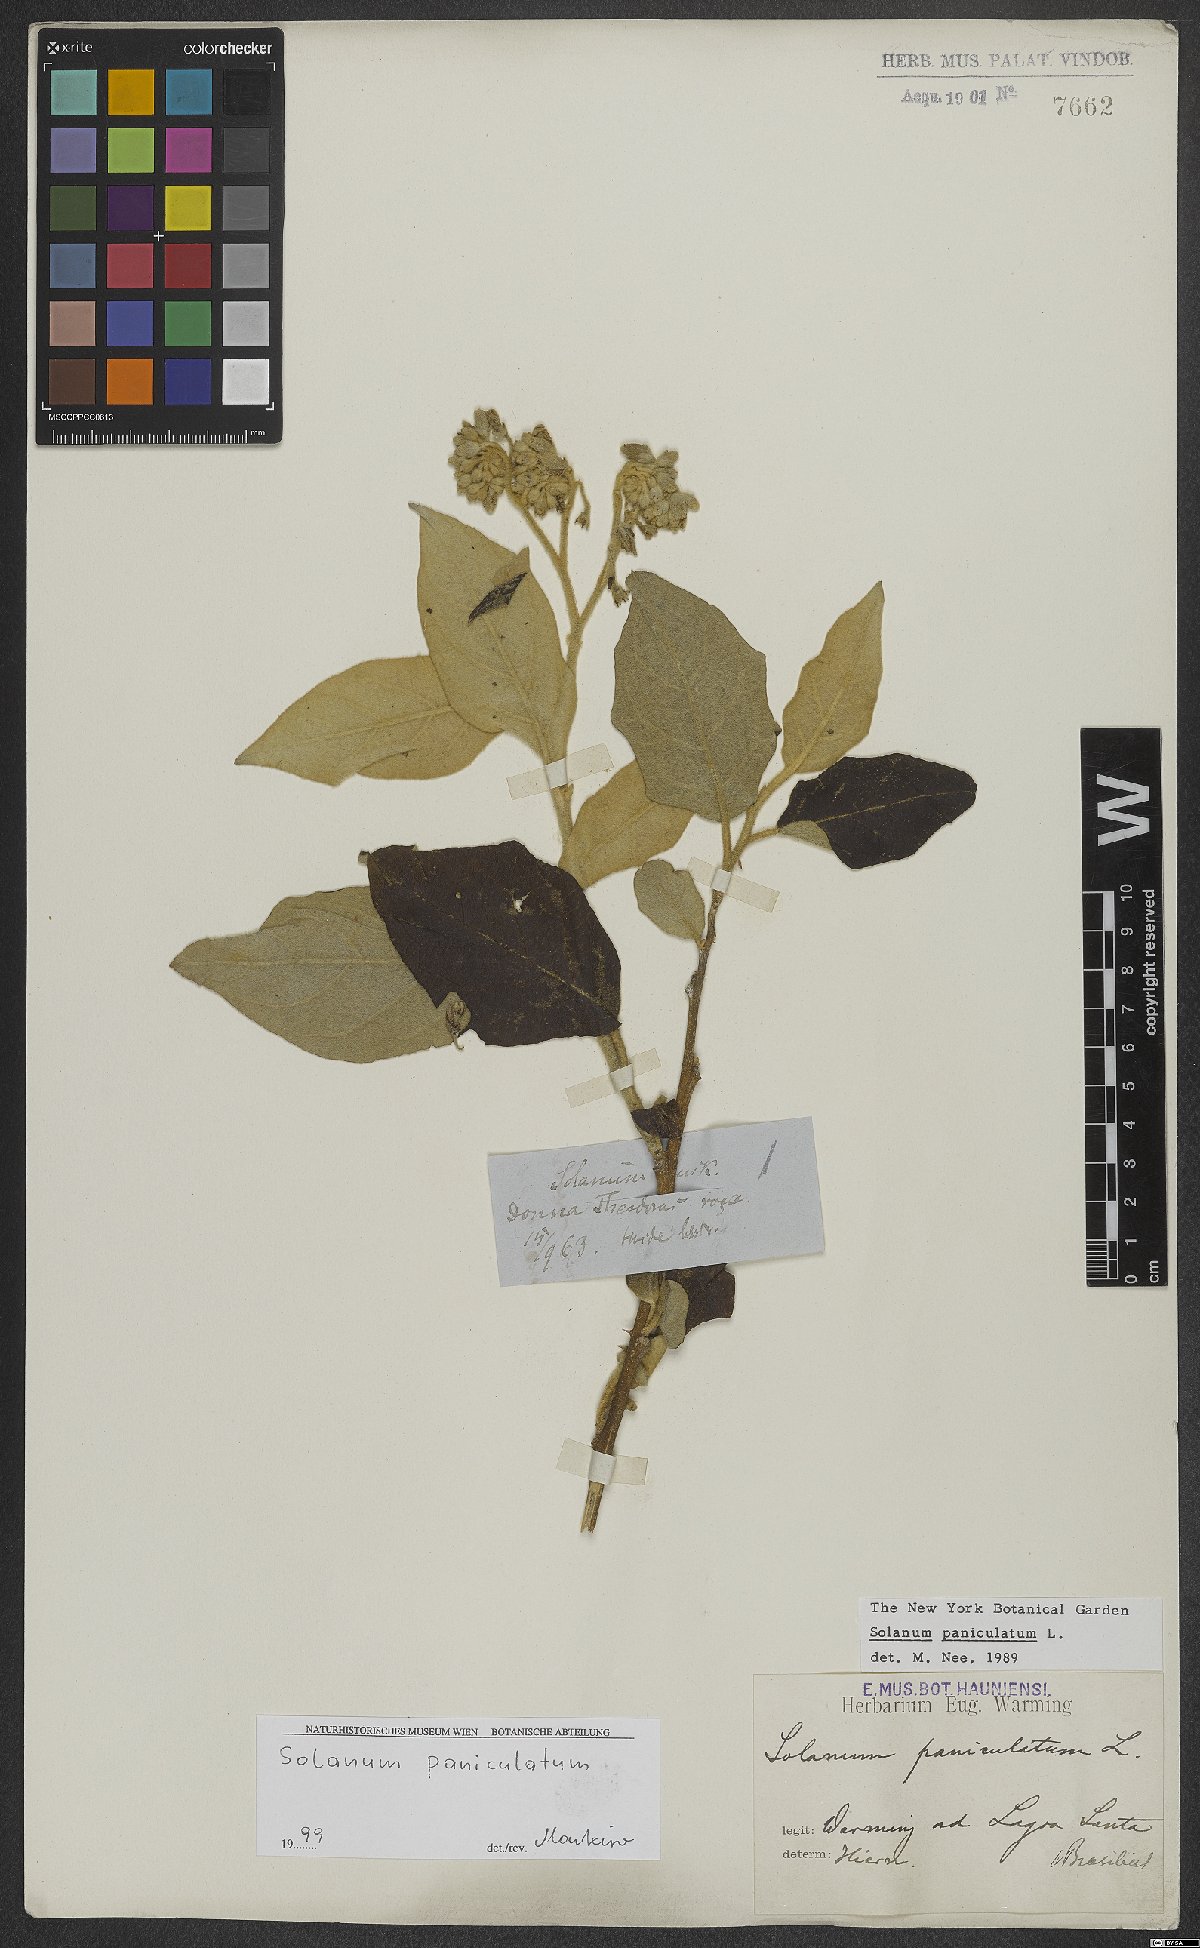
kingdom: Plantae
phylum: Tracheophyta
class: Magnoliopsida
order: Solanales
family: Solanaceae
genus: Solanum
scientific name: Solanum paniculatum
